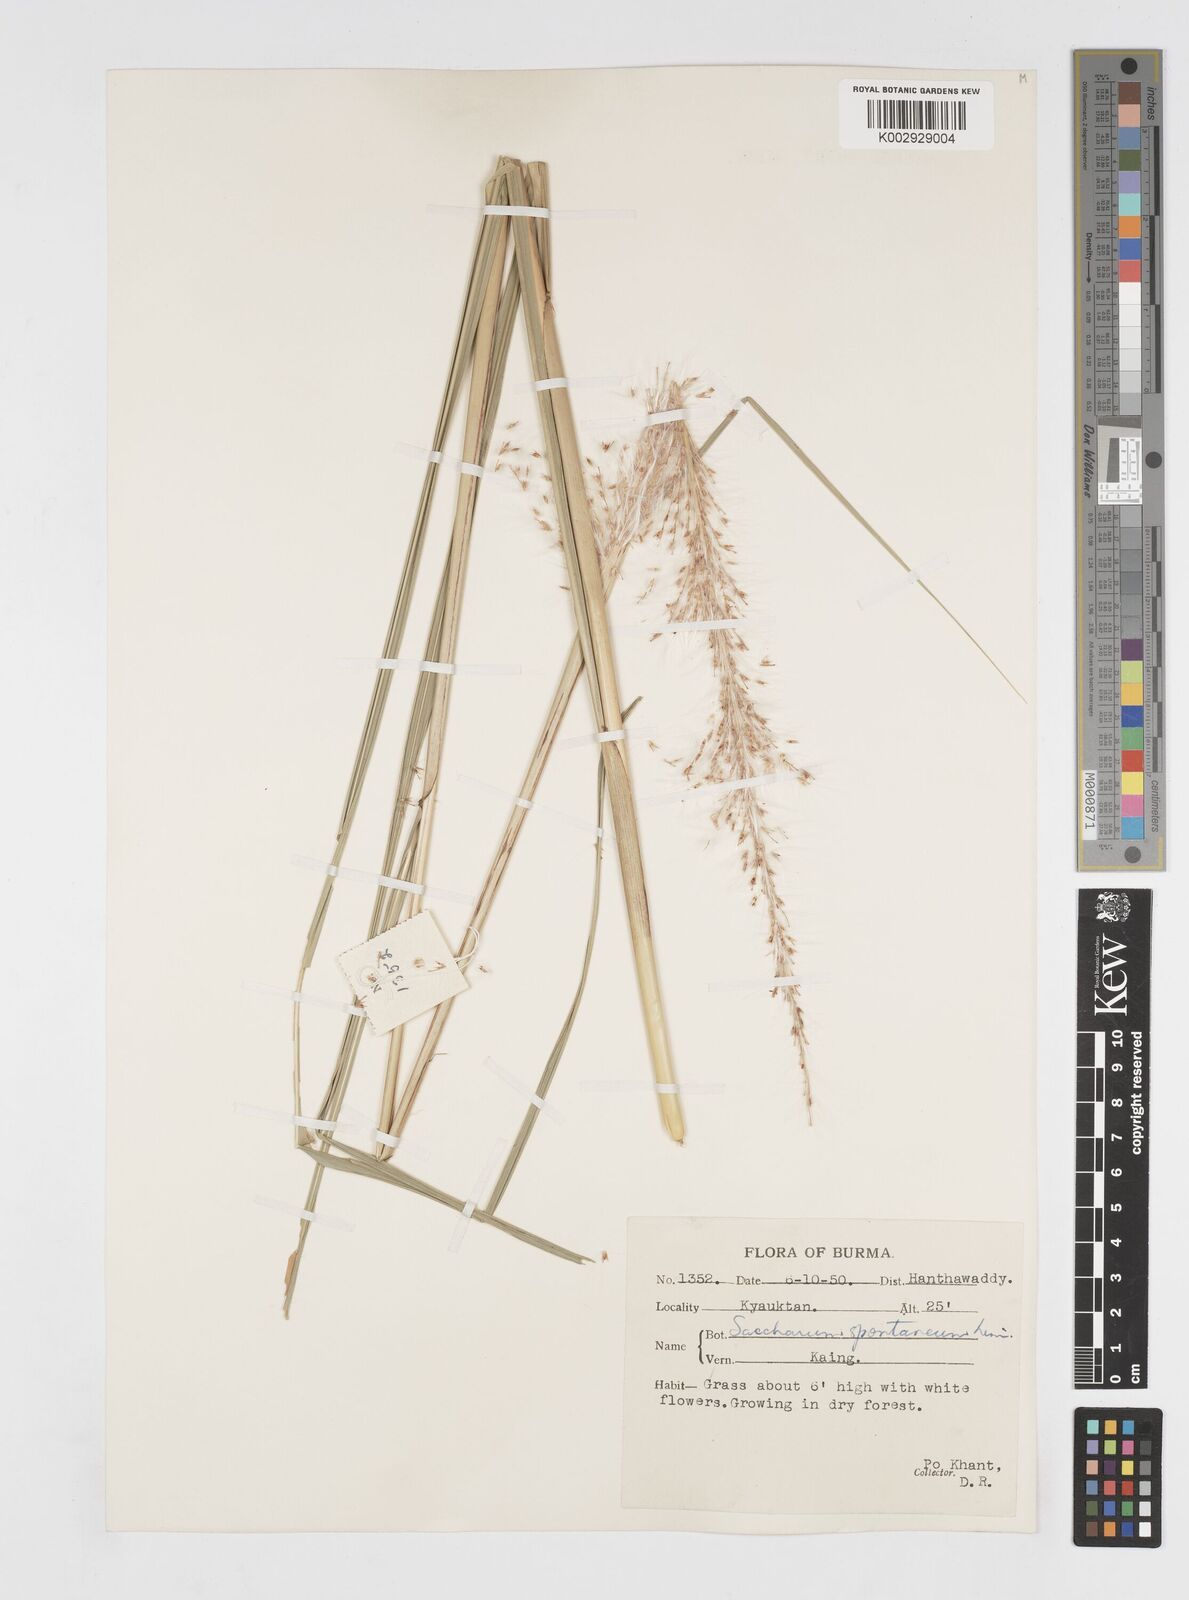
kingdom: Plantae
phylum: Tracheophyta
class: Liliopsida
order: Poales
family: Poaceae
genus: Saccharum
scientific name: Saccharum spontaneum
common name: Wild sugarcane
